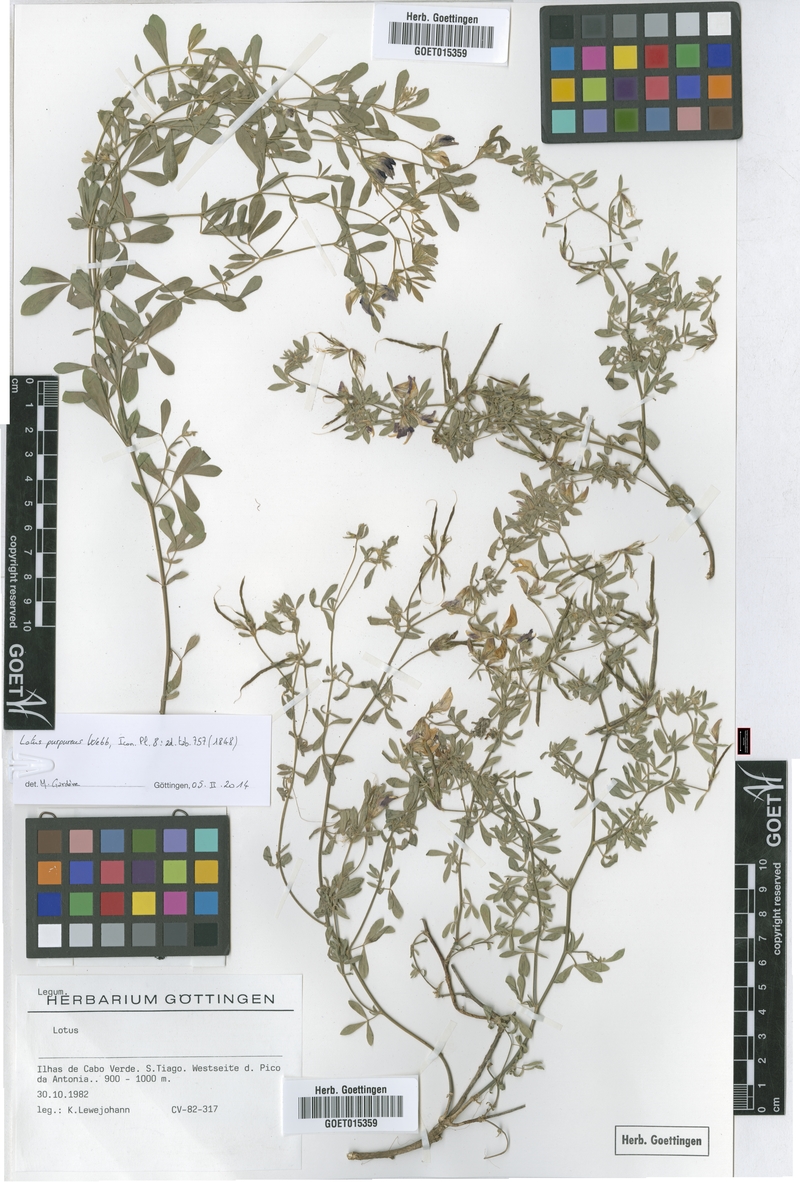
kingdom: Plantae
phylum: Tracheophyta
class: Magnoliopsida
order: Fabales
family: Fabaceae
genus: Lotus
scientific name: Lotus purpureus
